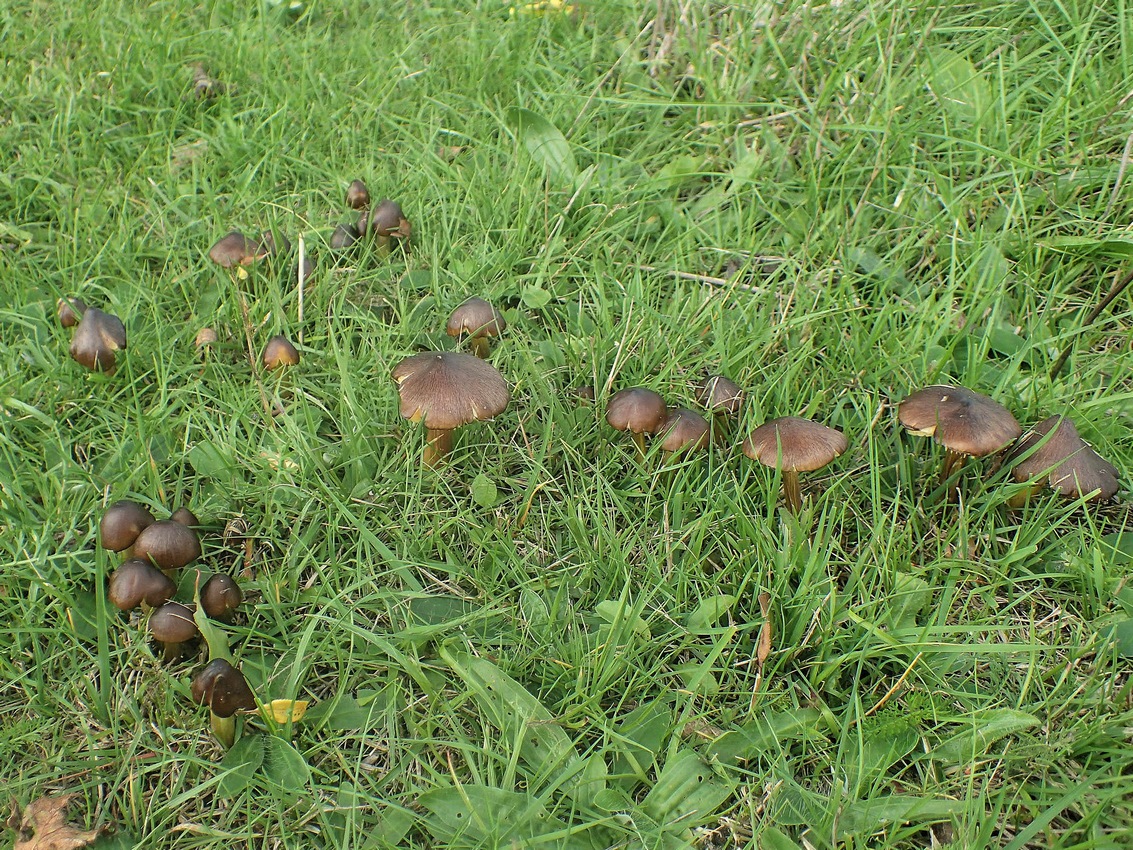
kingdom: Fungi
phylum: Basidiomycota
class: Agaricomycetes
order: Agaricales
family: Hygrophoraceae
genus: Hygrocybe
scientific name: Hygrocybe spadicea
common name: daddelbrun vokshat
